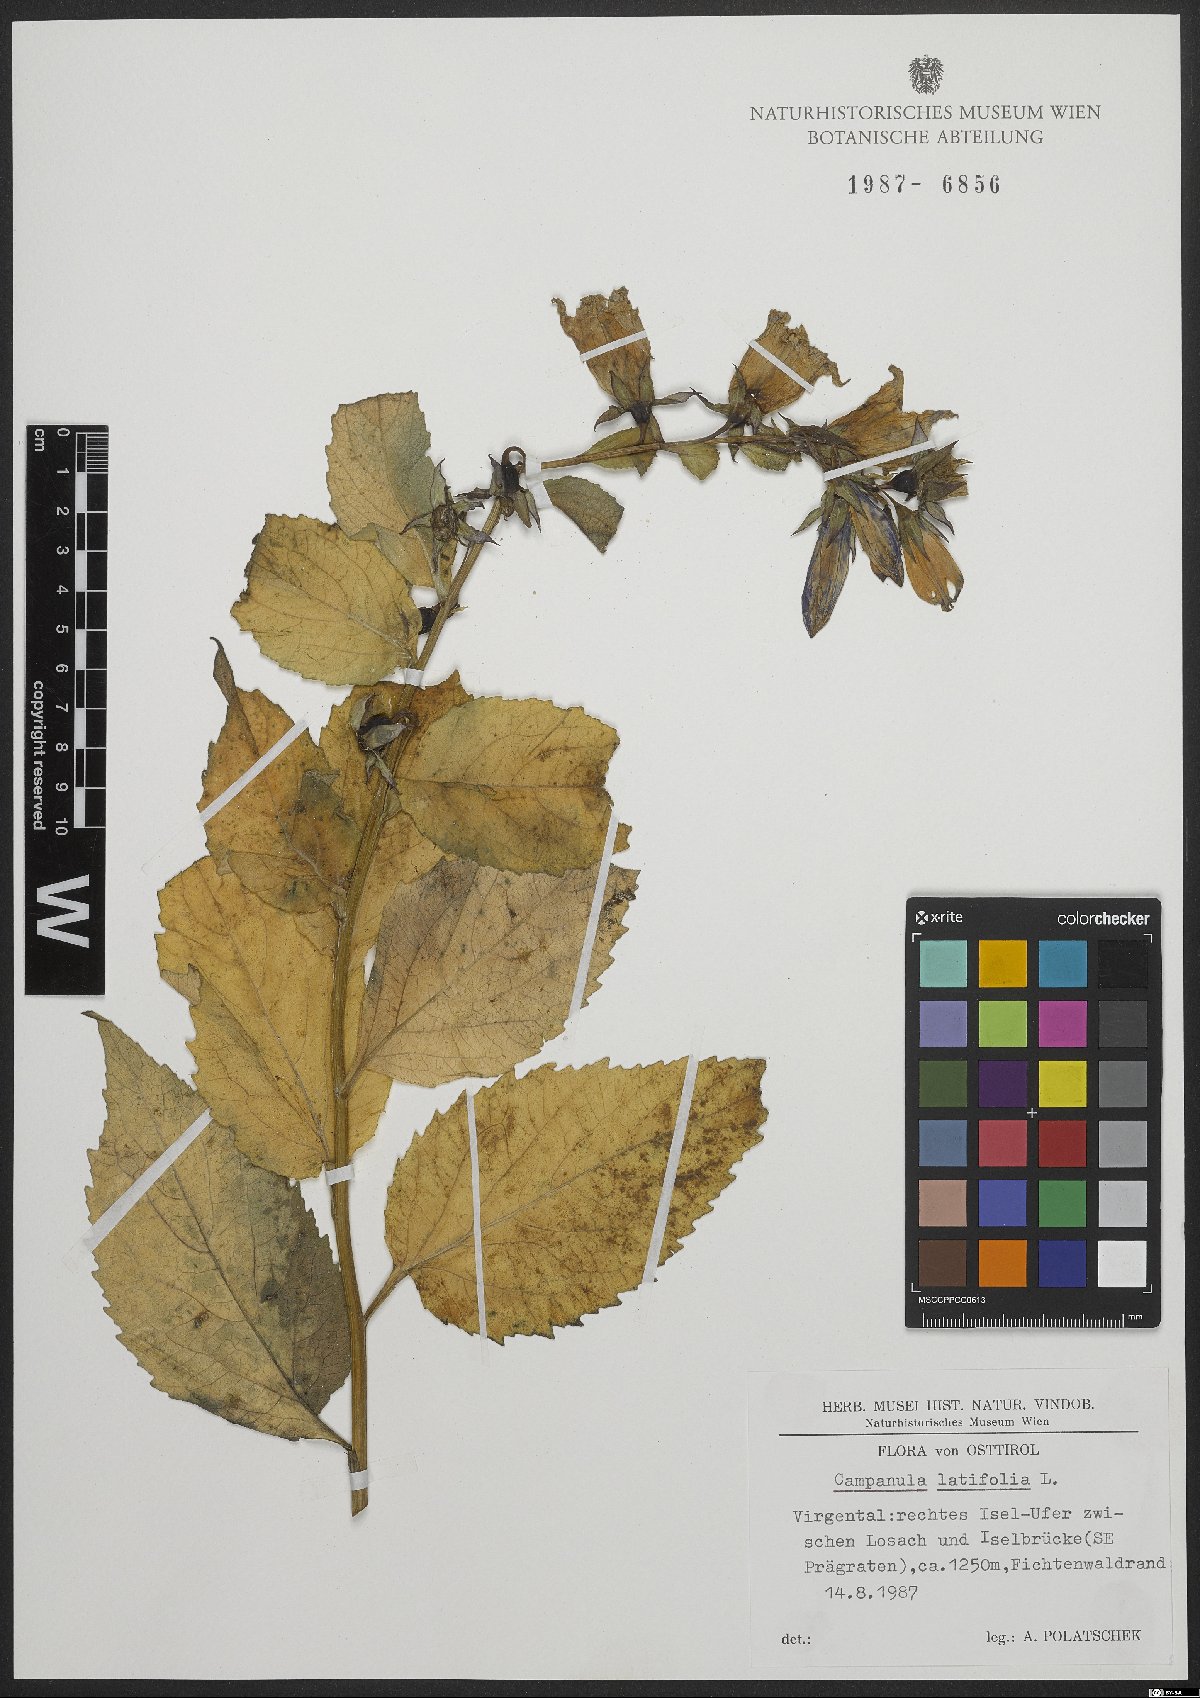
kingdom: Plantae
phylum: Tracheophyta
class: Magnoliopsida
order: Asterales
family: Campanulaceae
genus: Campanula
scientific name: Campanula latifolia
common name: Giant bellflower
